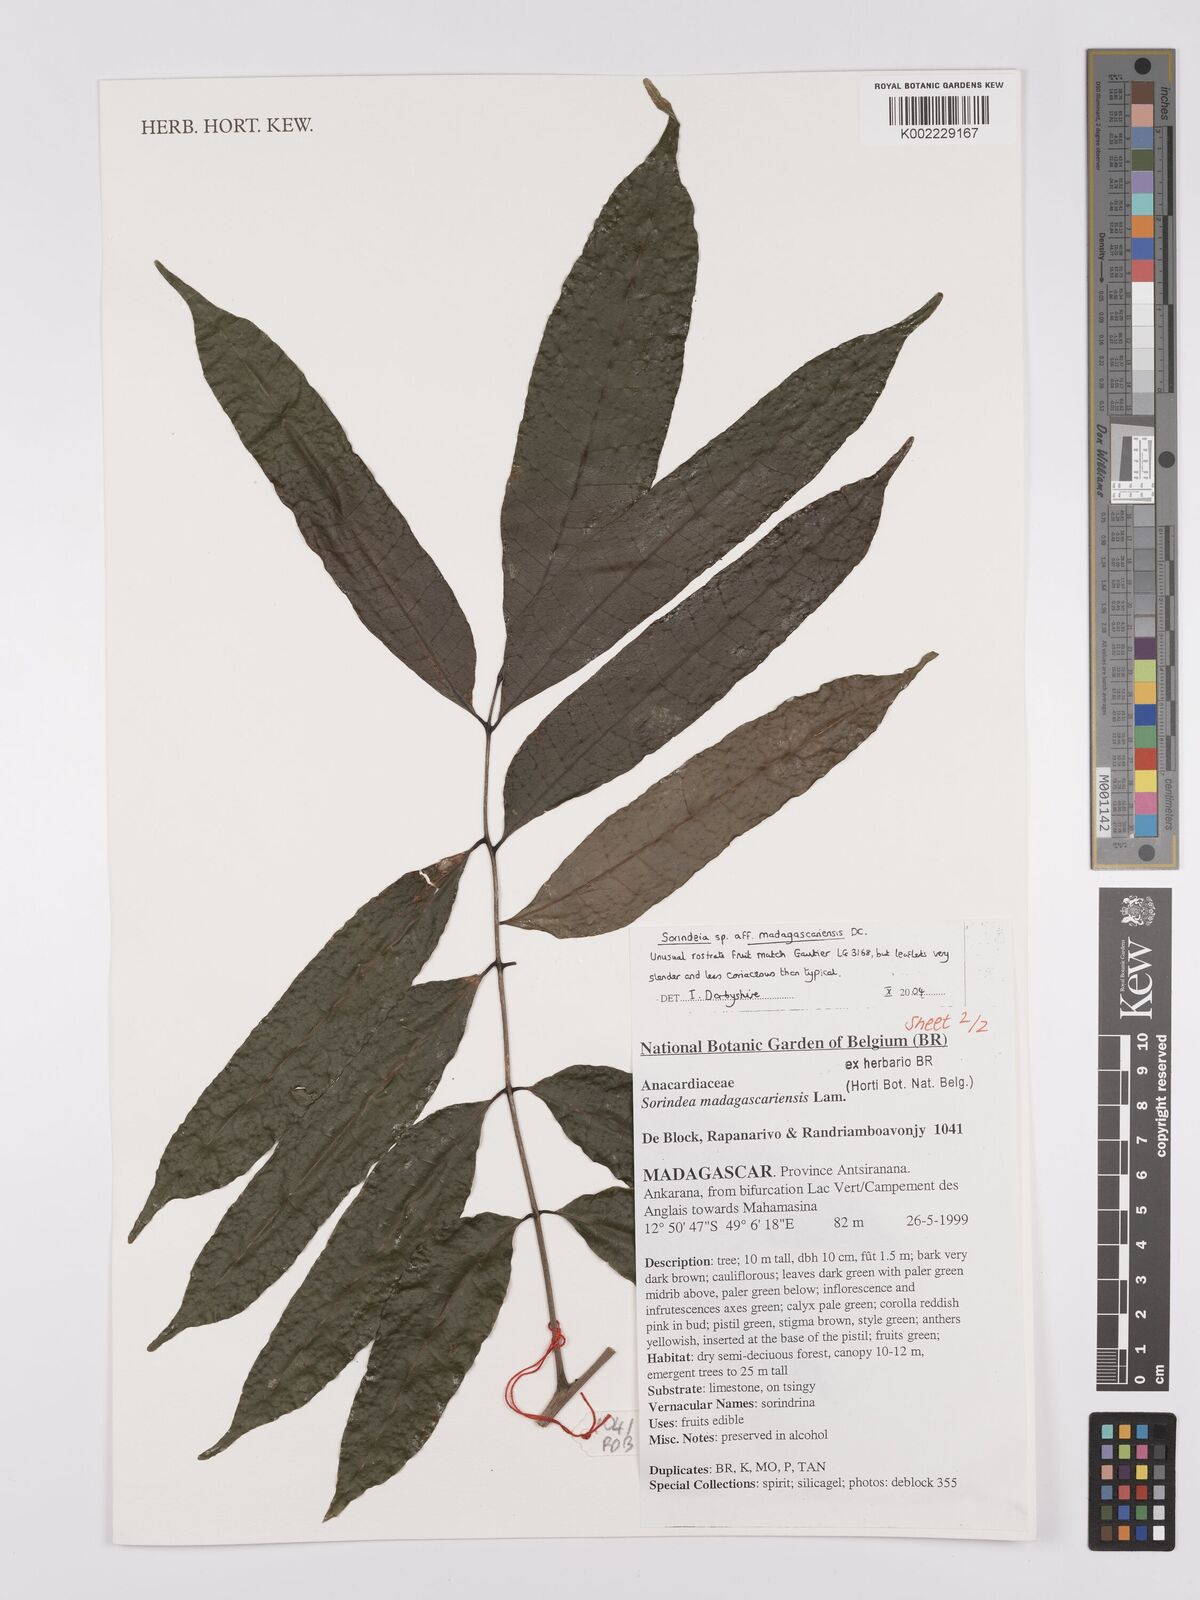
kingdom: Plantae
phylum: Tracheophyta
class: Magnoliopsida
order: Sapindales
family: Anacardiaceae
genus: Sorindeia
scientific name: Sorindeia madagascariensis
